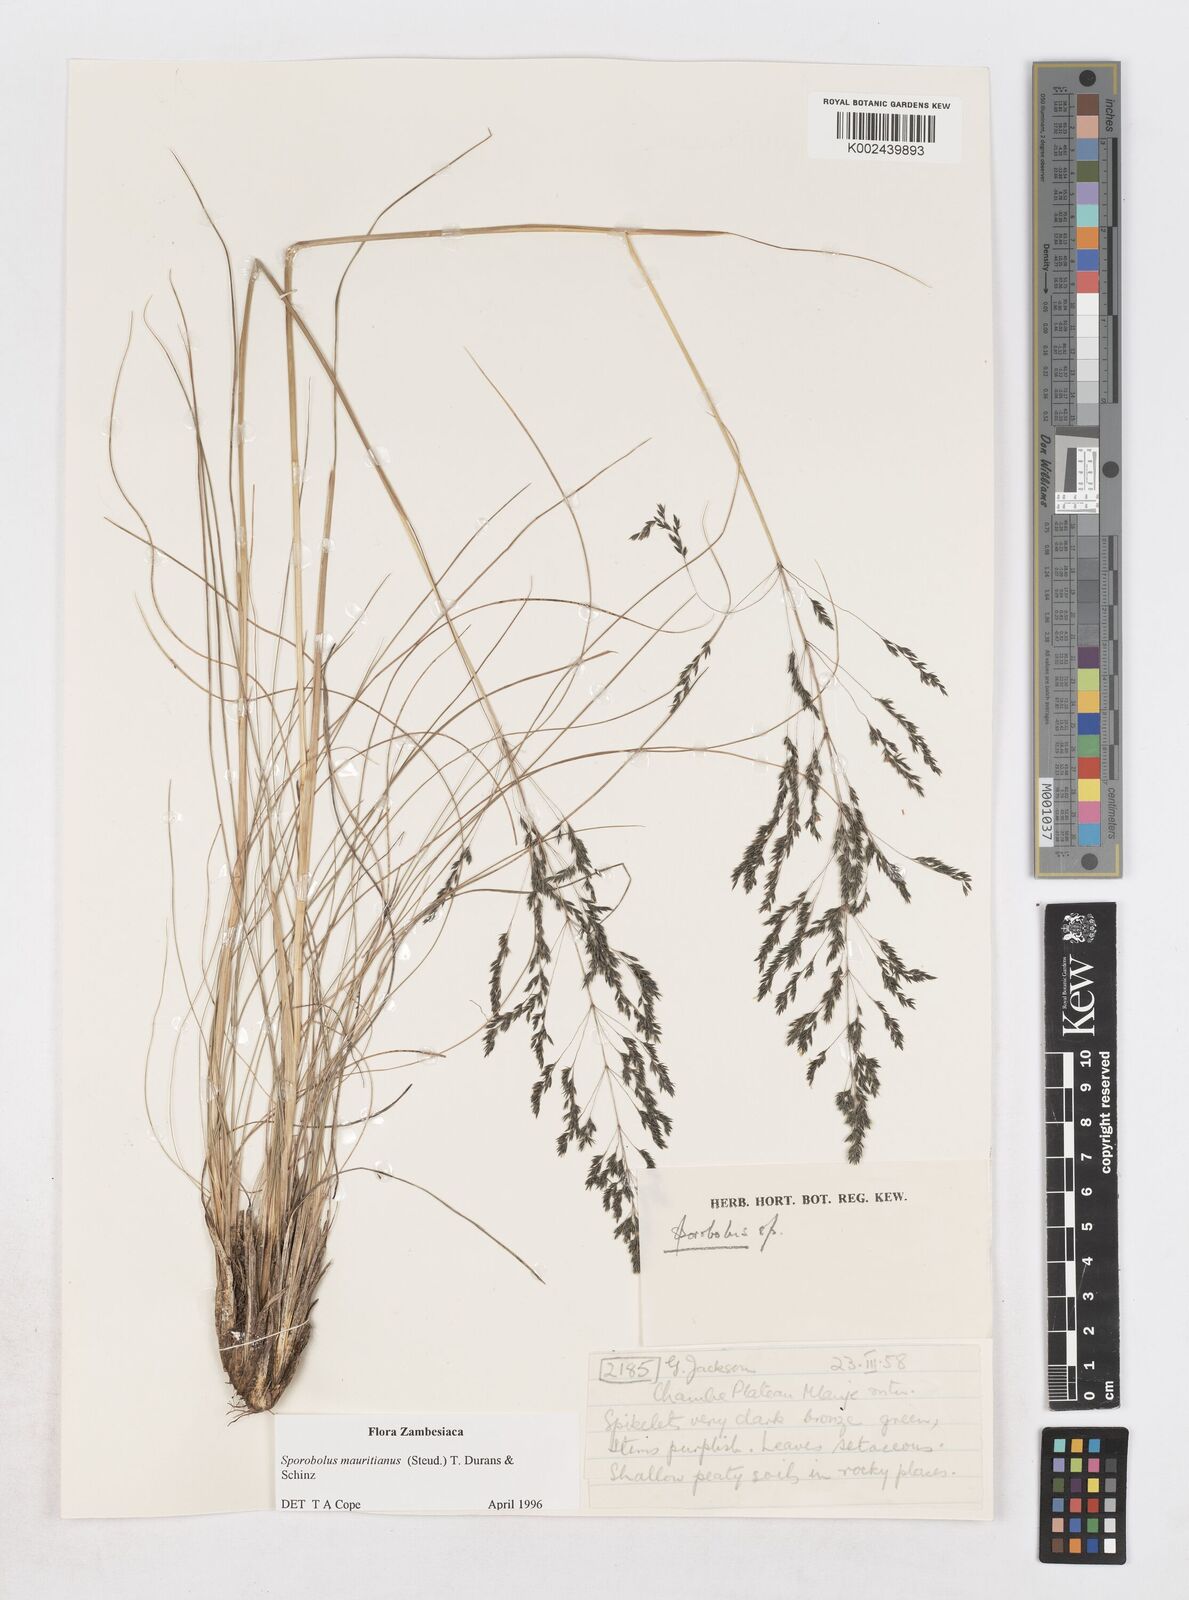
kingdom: Plantae
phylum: Tracheophyta
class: Liliopsida
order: Poales
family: Poaceae
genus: Sporobolus
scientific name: Sporobolus subulatus
